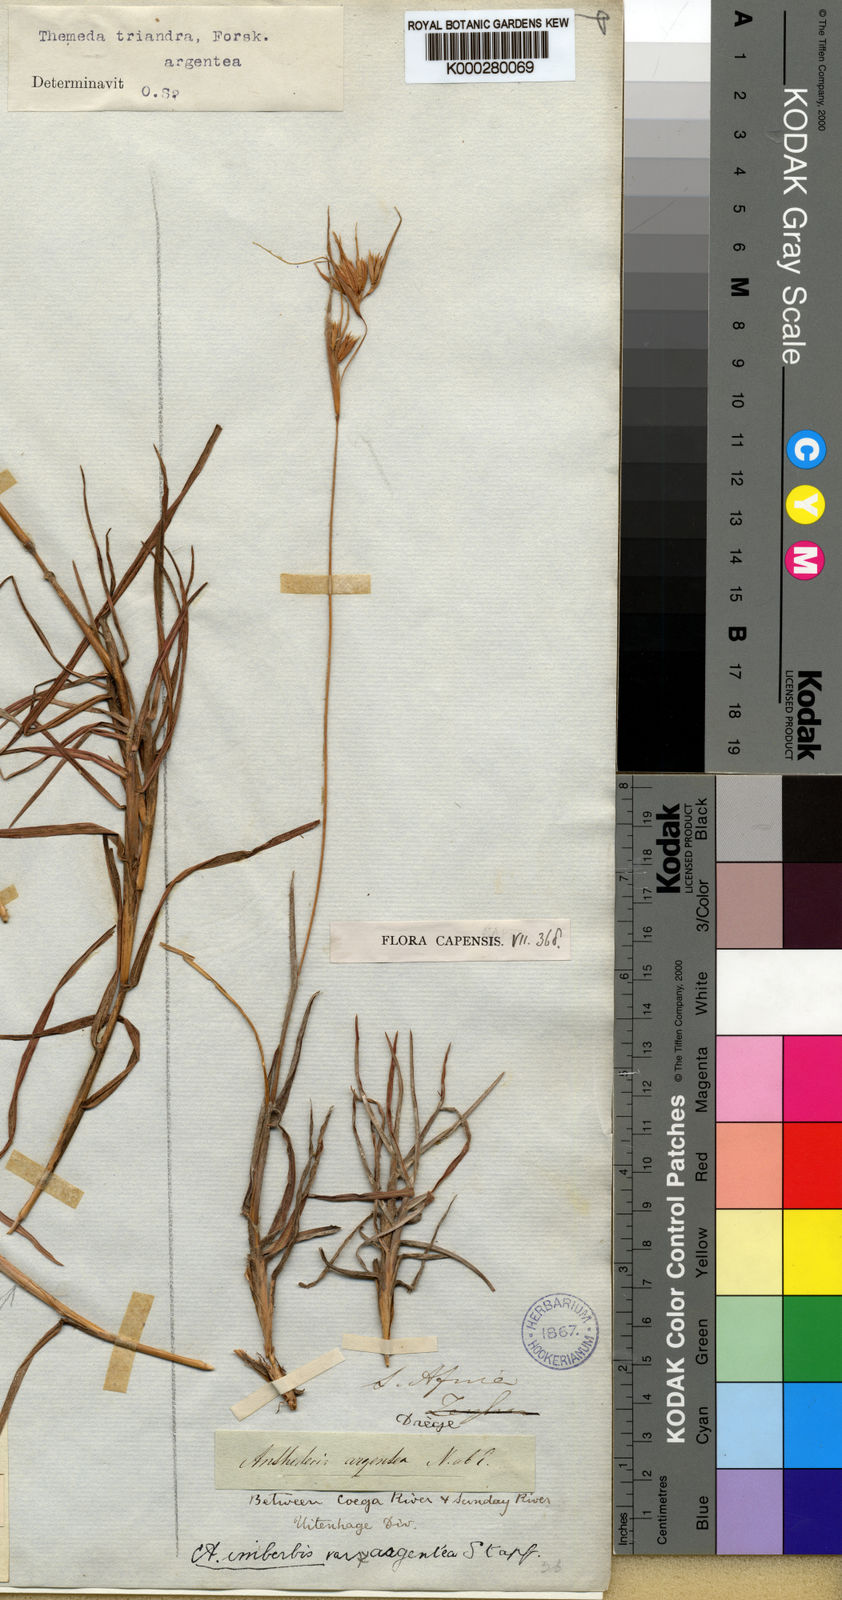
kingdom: Plantae
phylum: Tracheophyta
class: Liliopsida
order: Poales
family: Poaceae
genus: Themeda
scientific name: Themeda triandra
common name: Kangaroo grass
